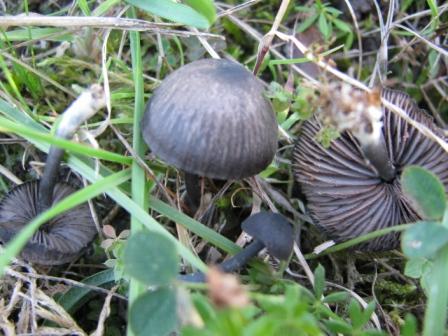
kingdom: Fungi
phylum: Basidiomycota
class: Agaricomycetes
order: Agaricales
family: Entolomataceae
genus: Entoloma
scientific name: Entoloma chalybeum
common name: blåbladet rødblad
